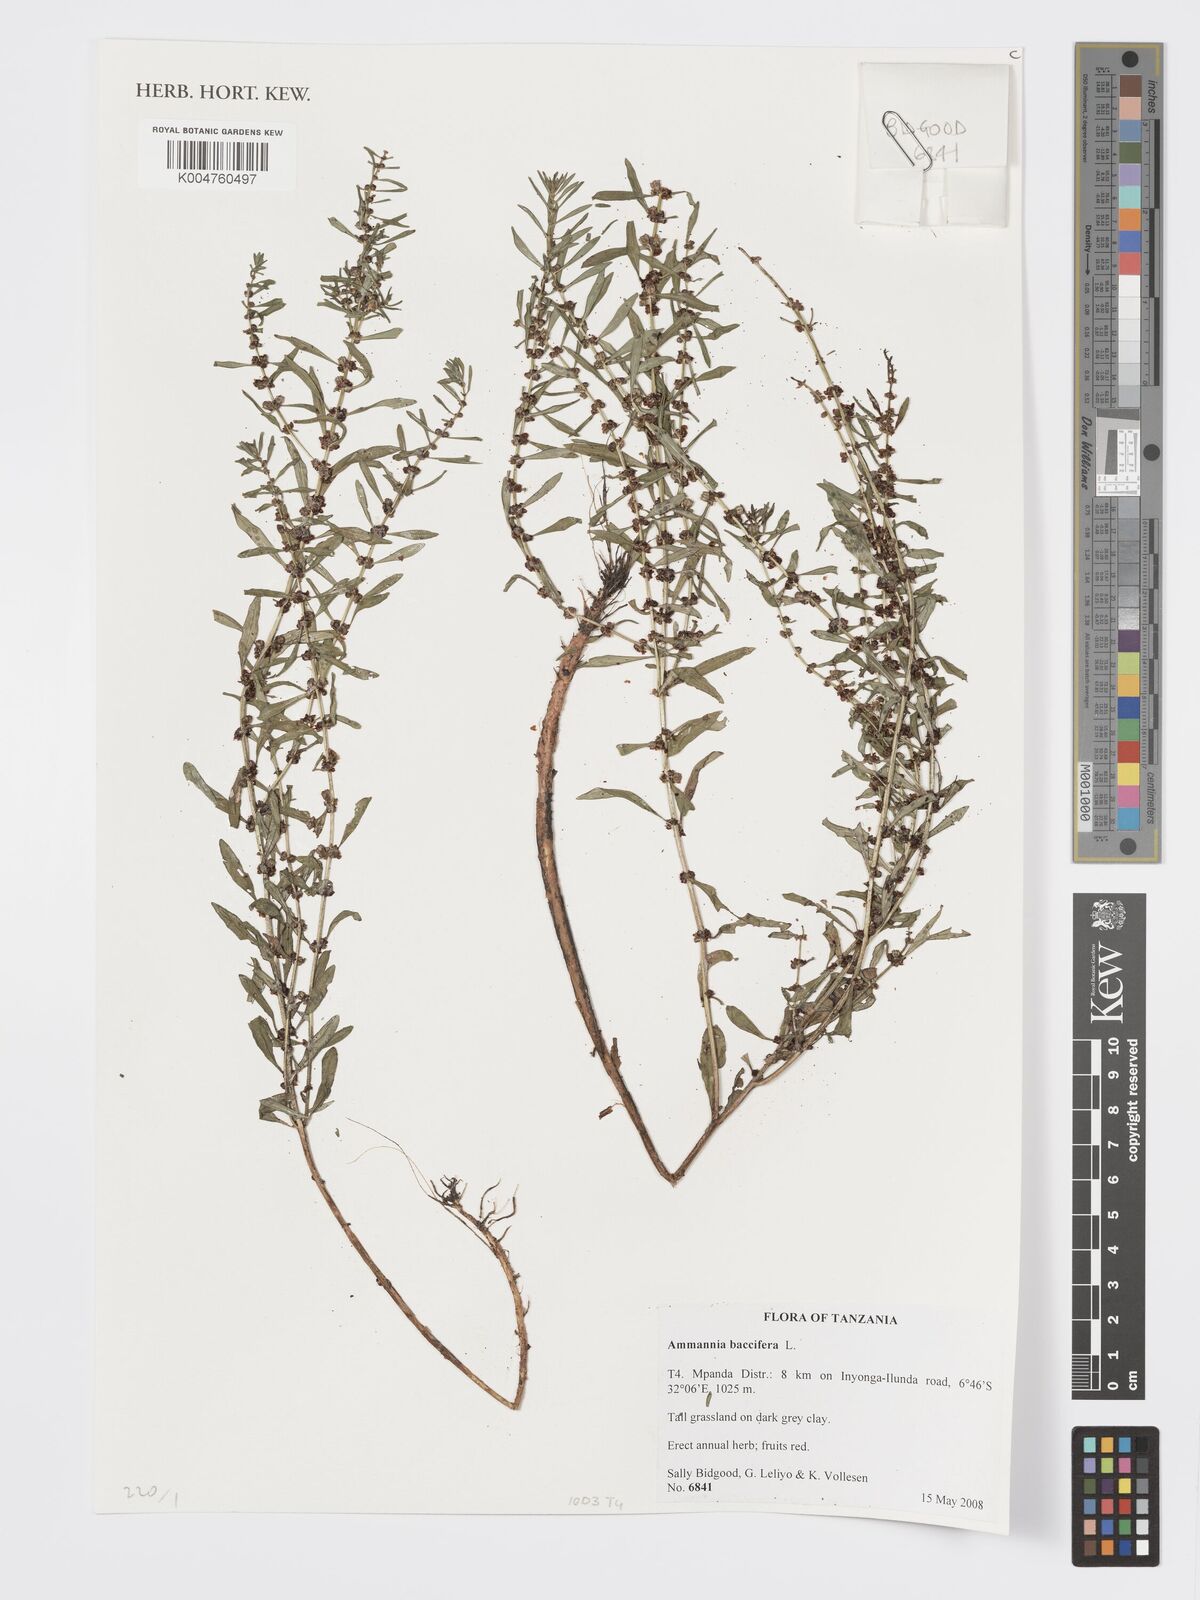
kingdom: Plantae
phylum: Tracheophyta
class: Magnoliopsida
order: Myrtales
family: Lythraceae
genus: Ammannia
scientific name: Ammannia
